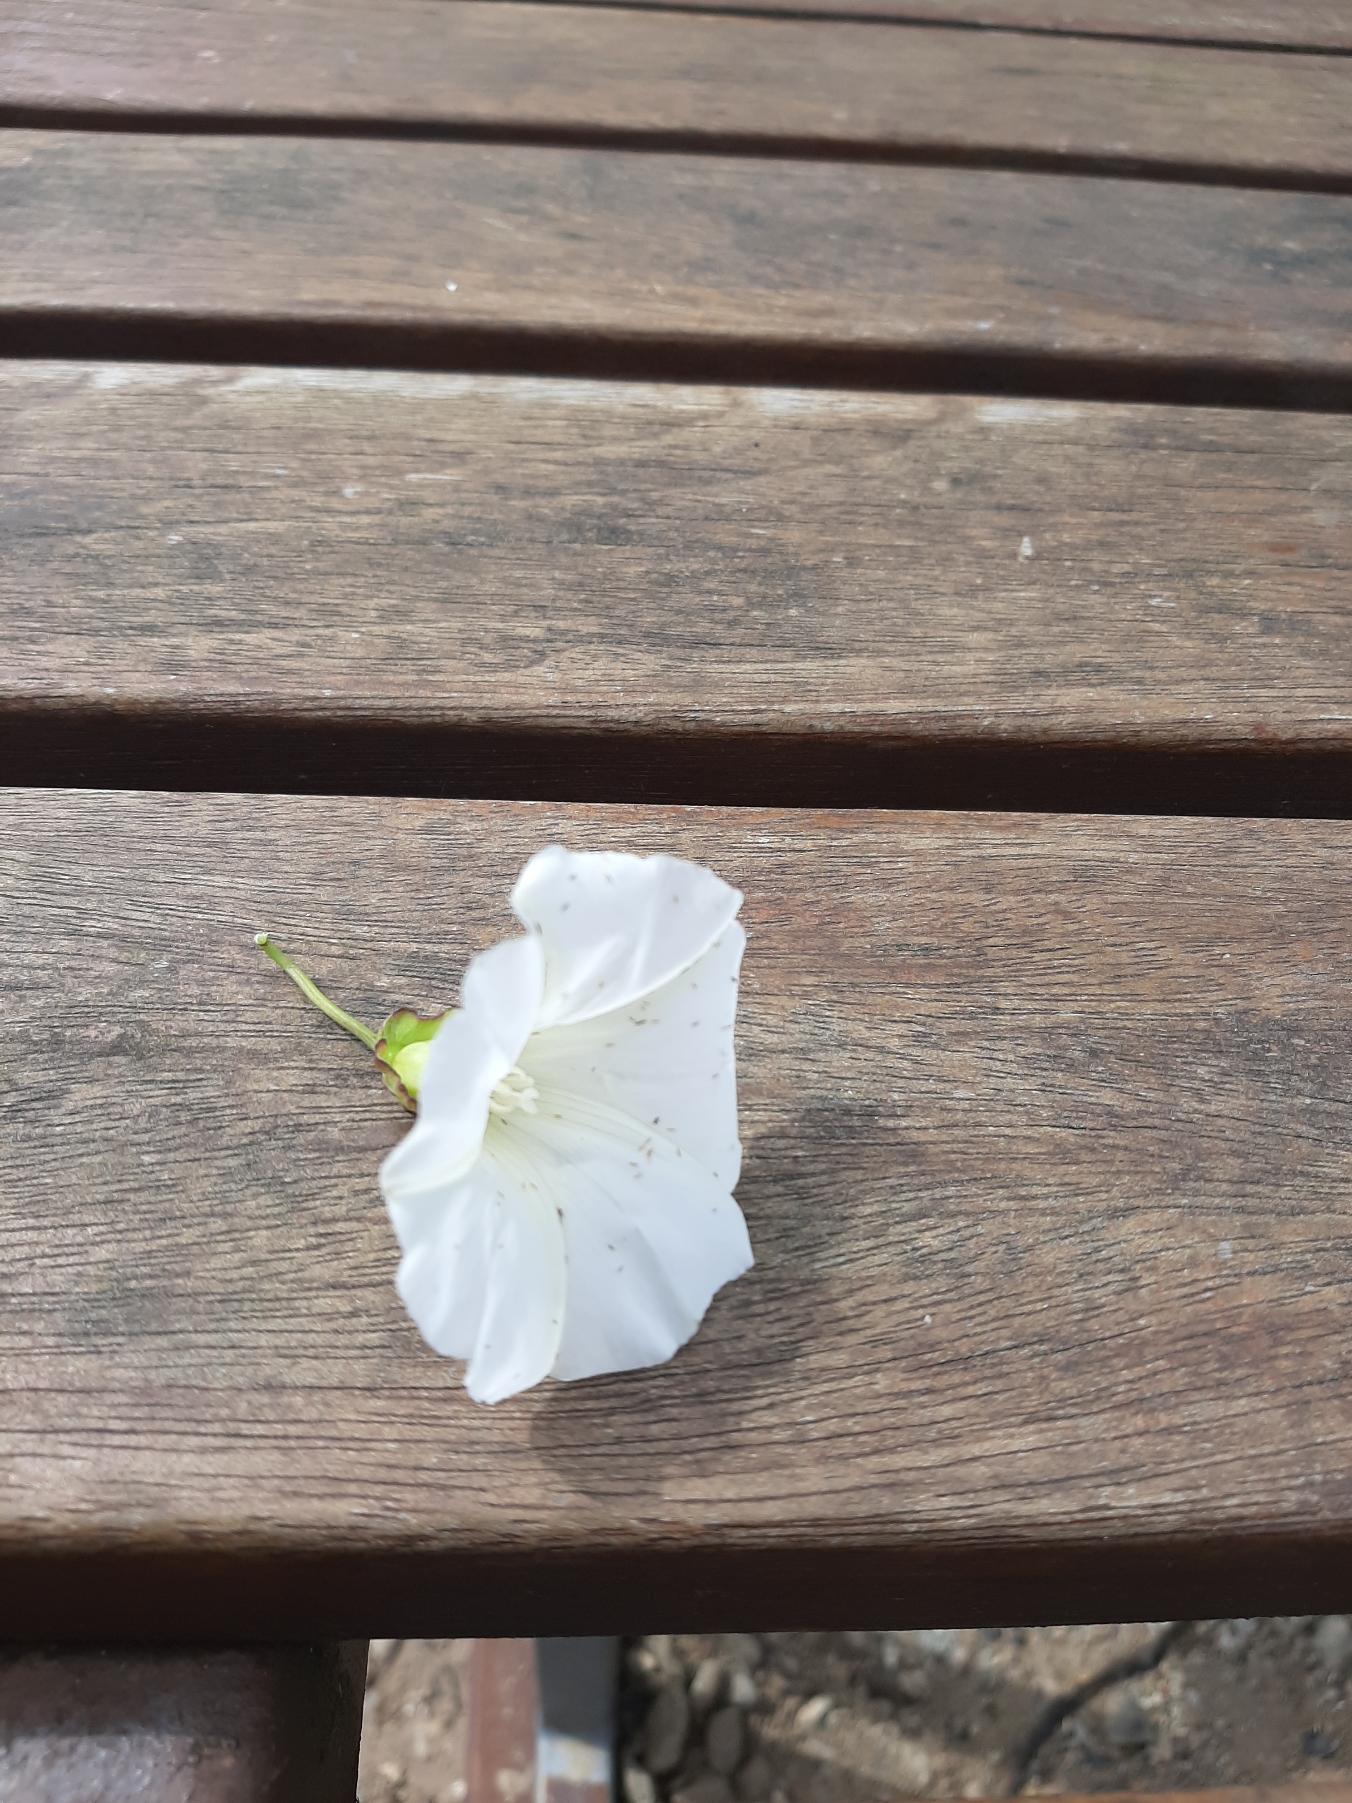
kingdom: Plantae
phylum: Tracheophyta
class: Magnoliopsida
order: Solanales
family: Convolvulaceae
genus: Calystegia
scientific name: Calystegia sepium
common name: Gærde-snerle
